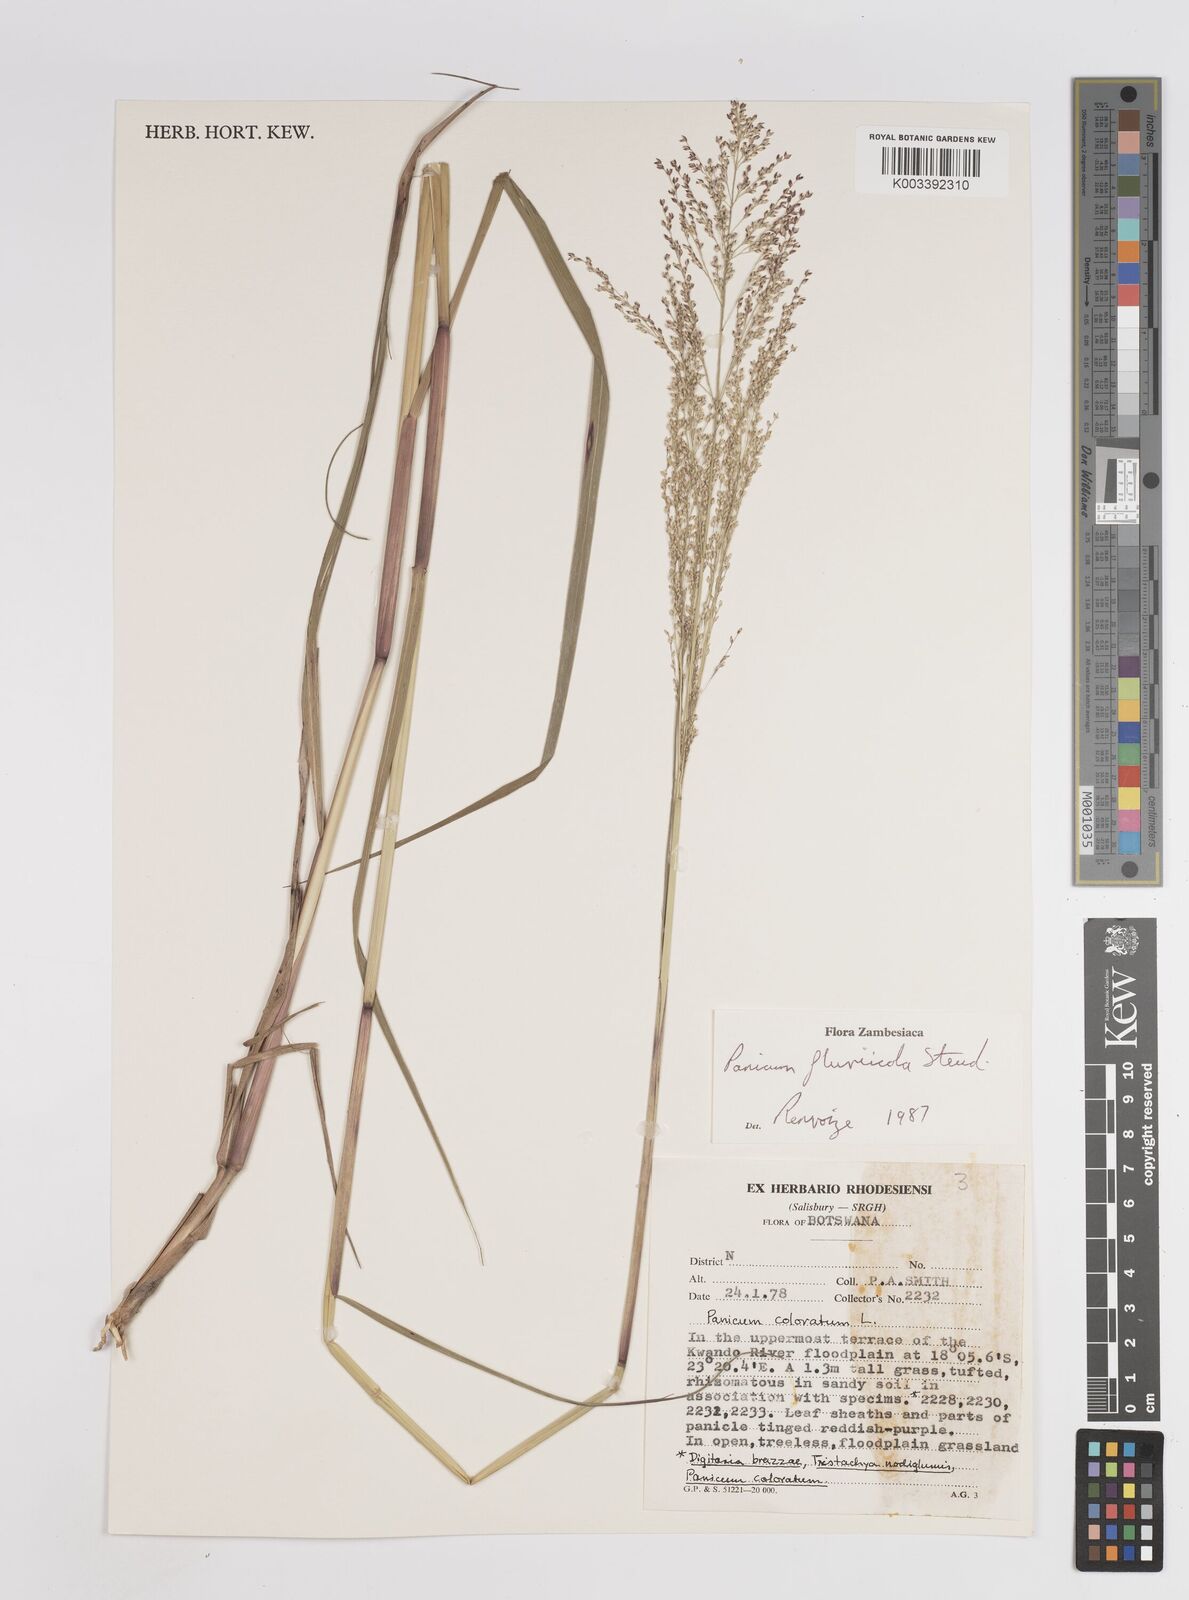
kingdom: Plantae
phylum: Tracheophyta
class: Liliopsida
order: Poales
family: Poaceae
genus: Panicum
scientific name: Panicum fluviicola
